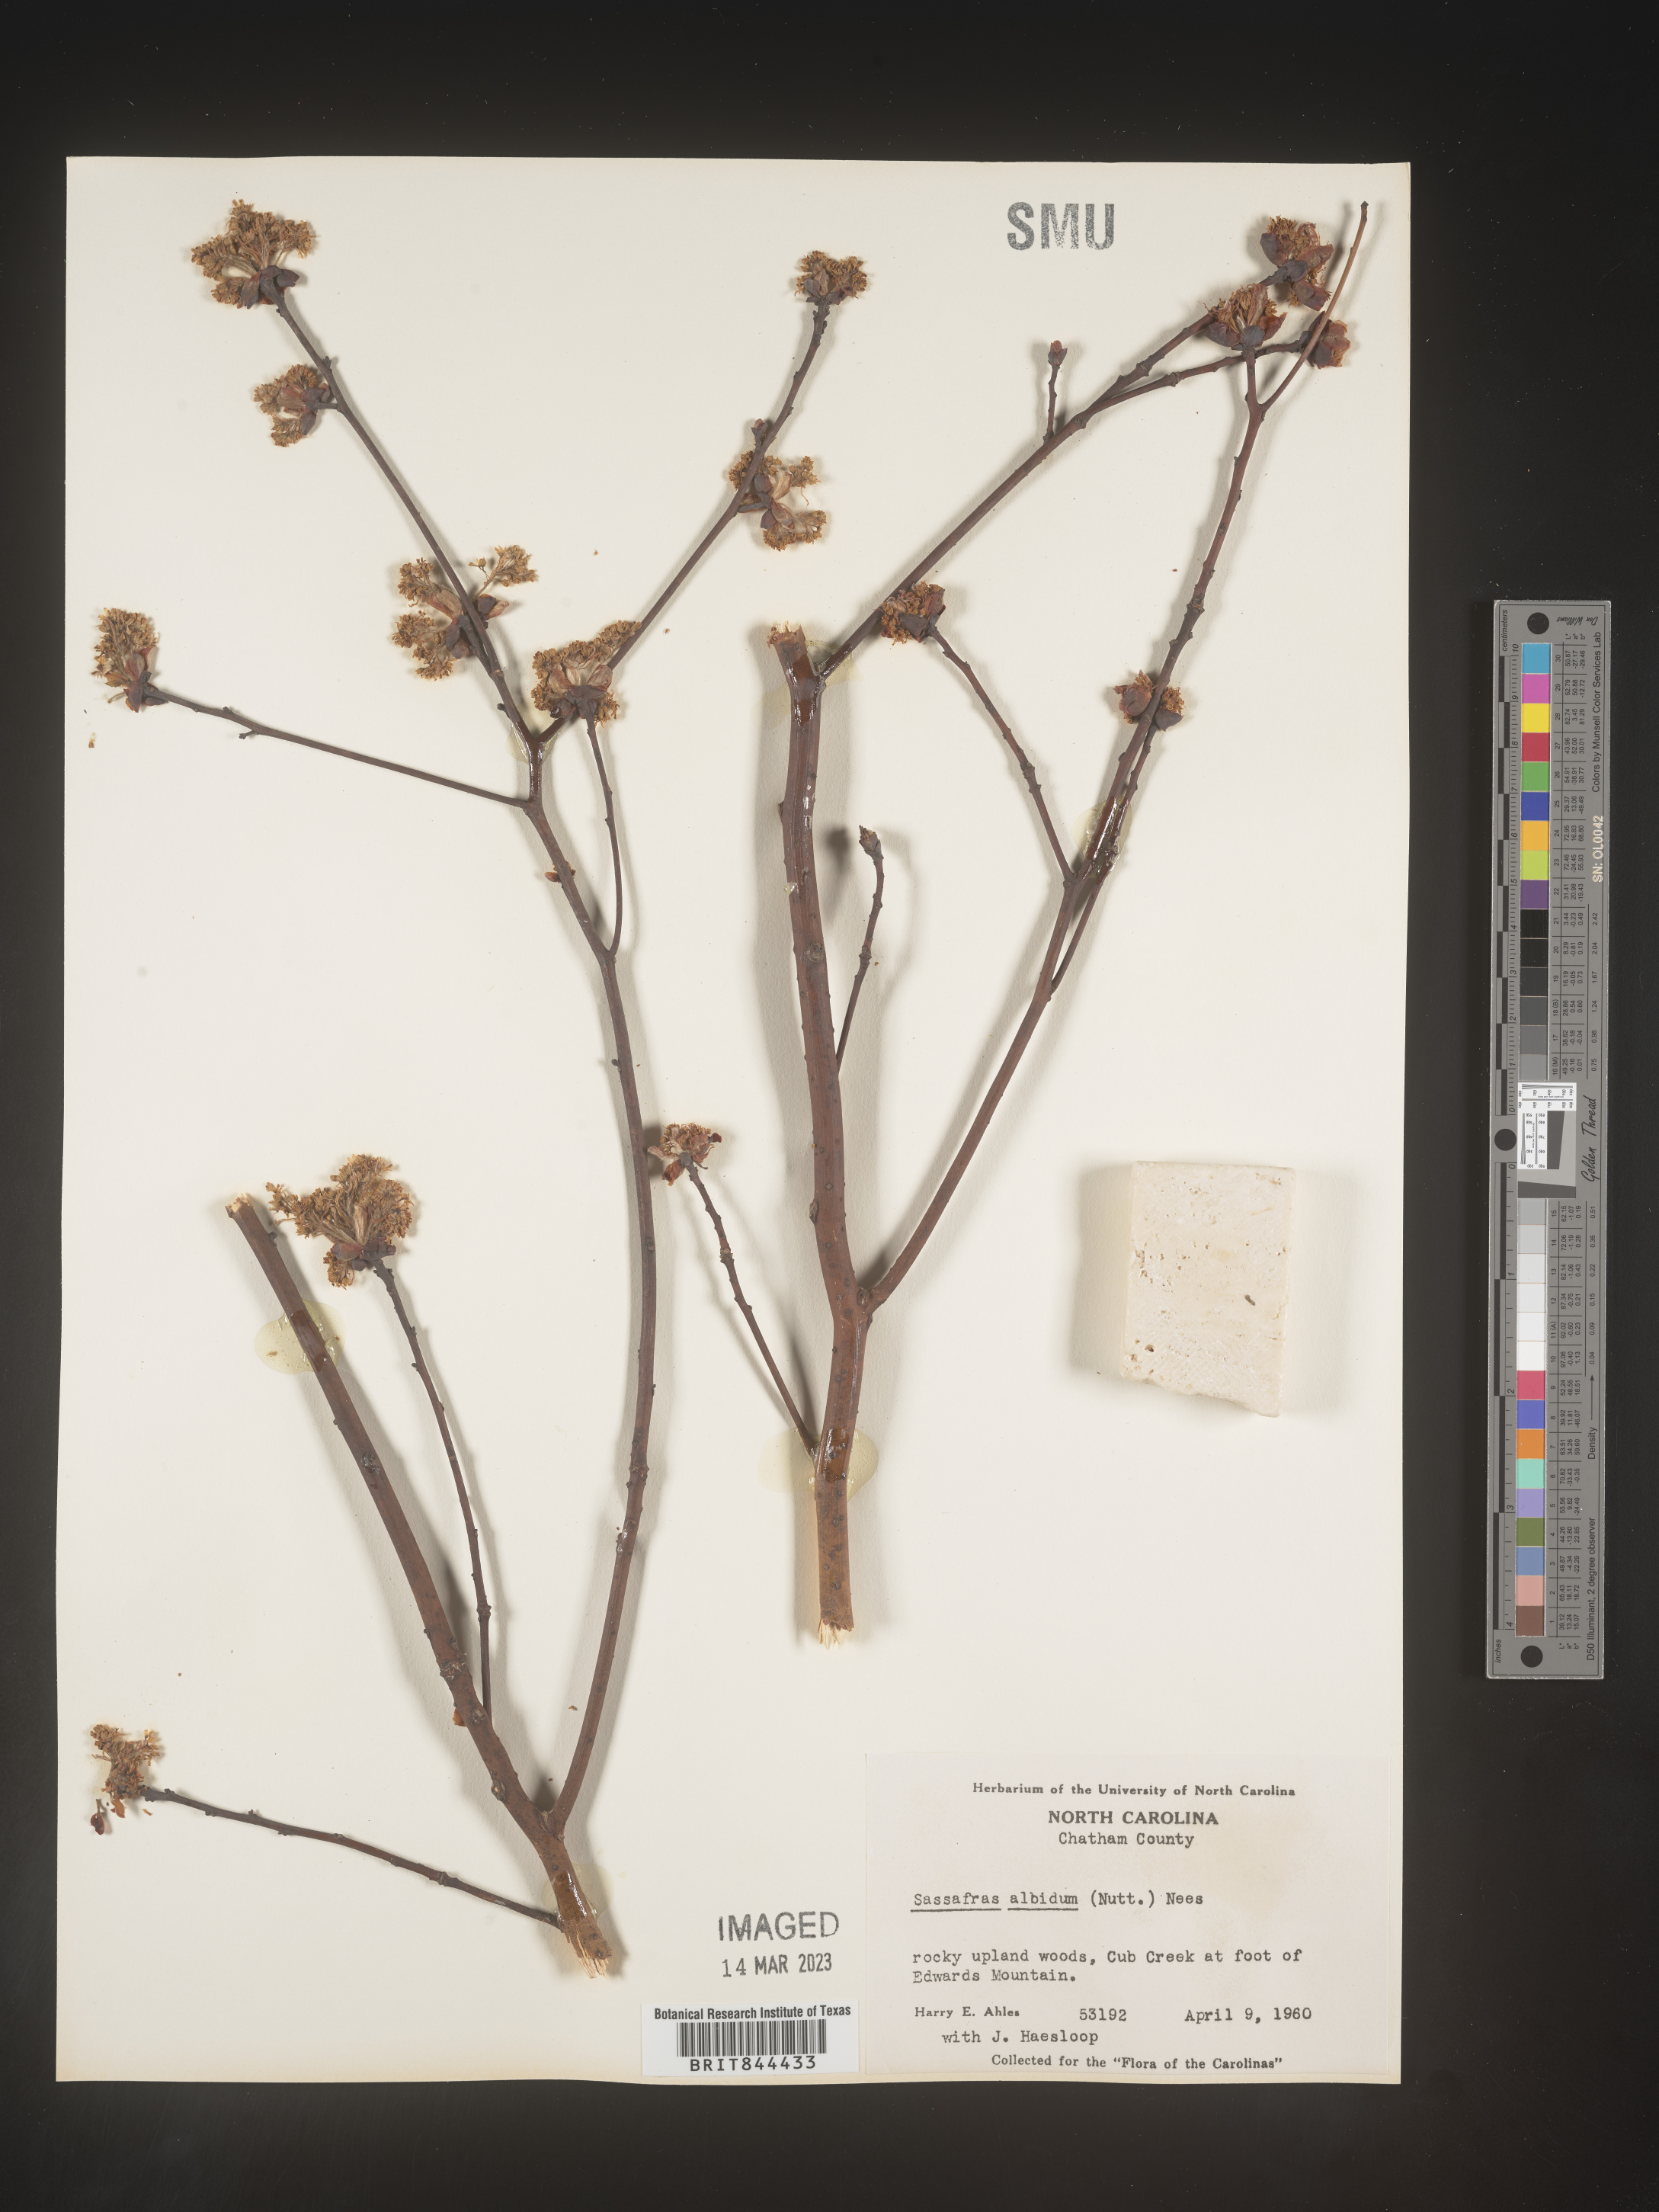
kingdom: Plantae
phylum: Tracheophyta
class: Magnoliopsida
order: Laurales
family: Lauraceae
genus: Sassafras
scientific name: Sassafras albidum
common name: Sassafras
